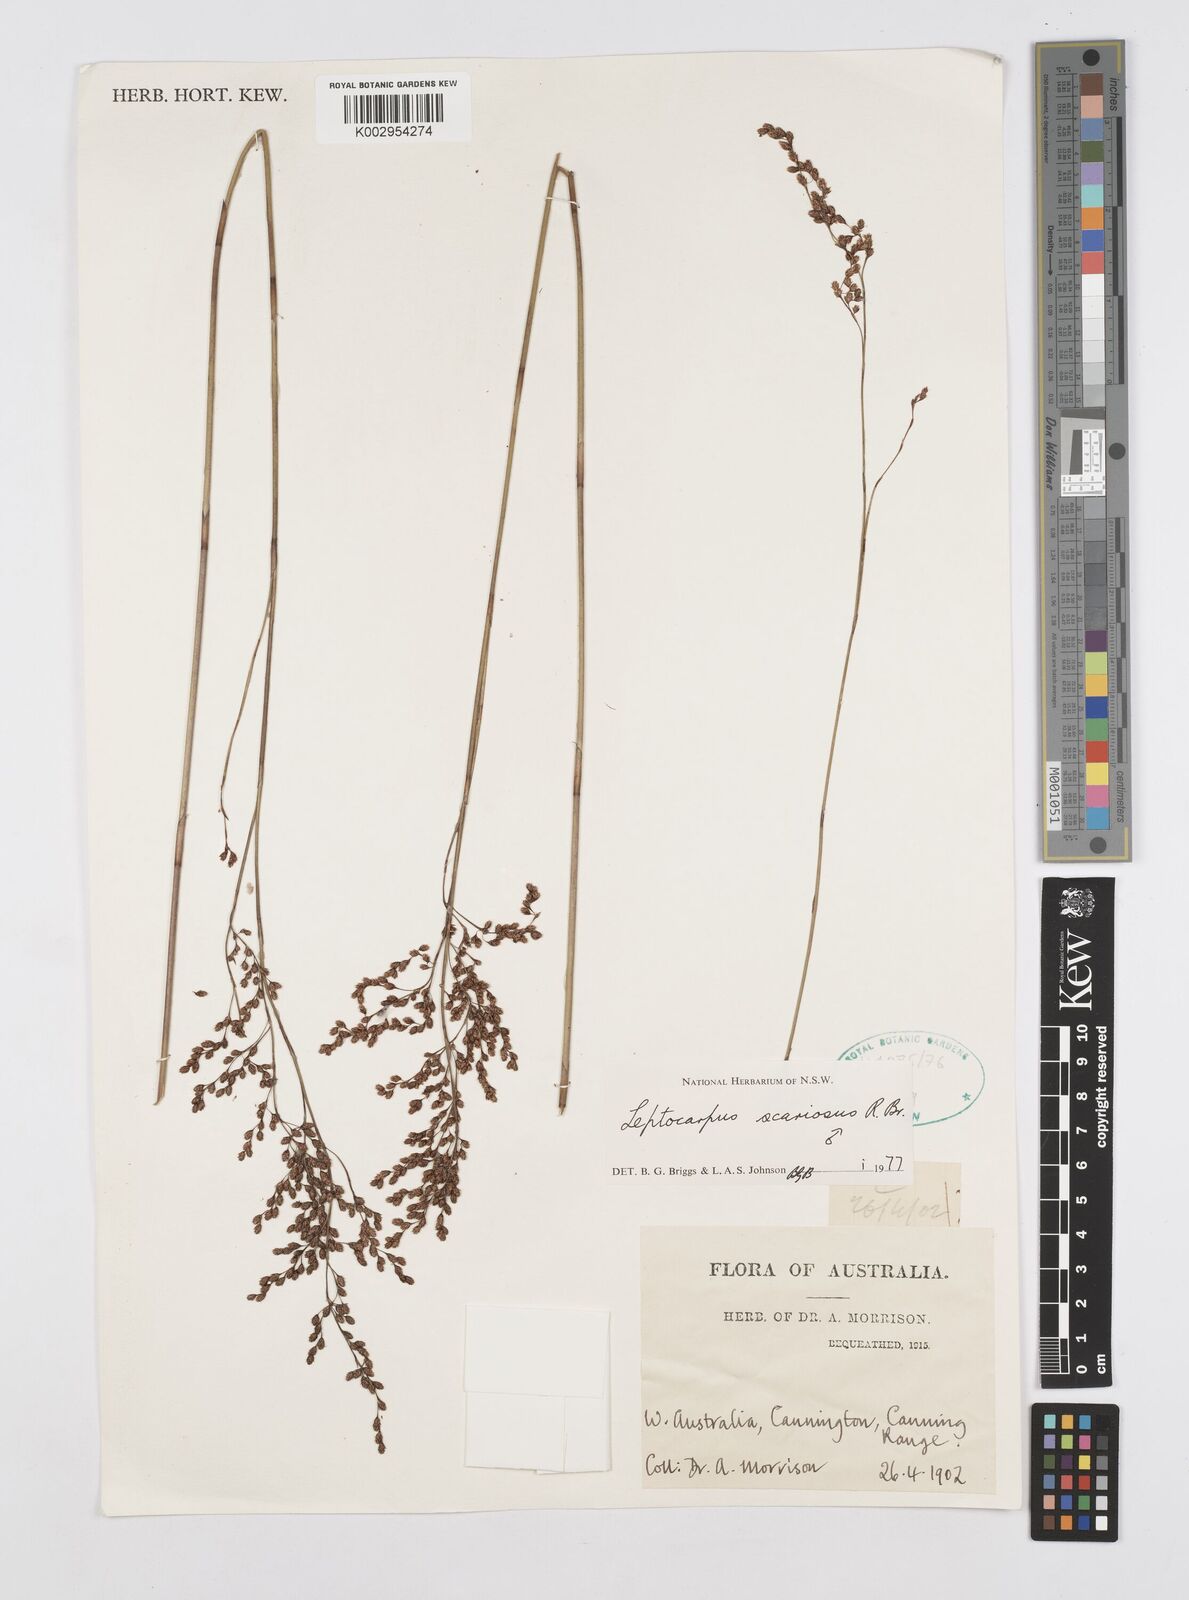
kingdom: Plantae
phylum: Tracheophyta
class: Liliopsida
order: Poales
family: Restionaceae
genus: Leptocarpus
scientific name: Leptocarpus scariosus
